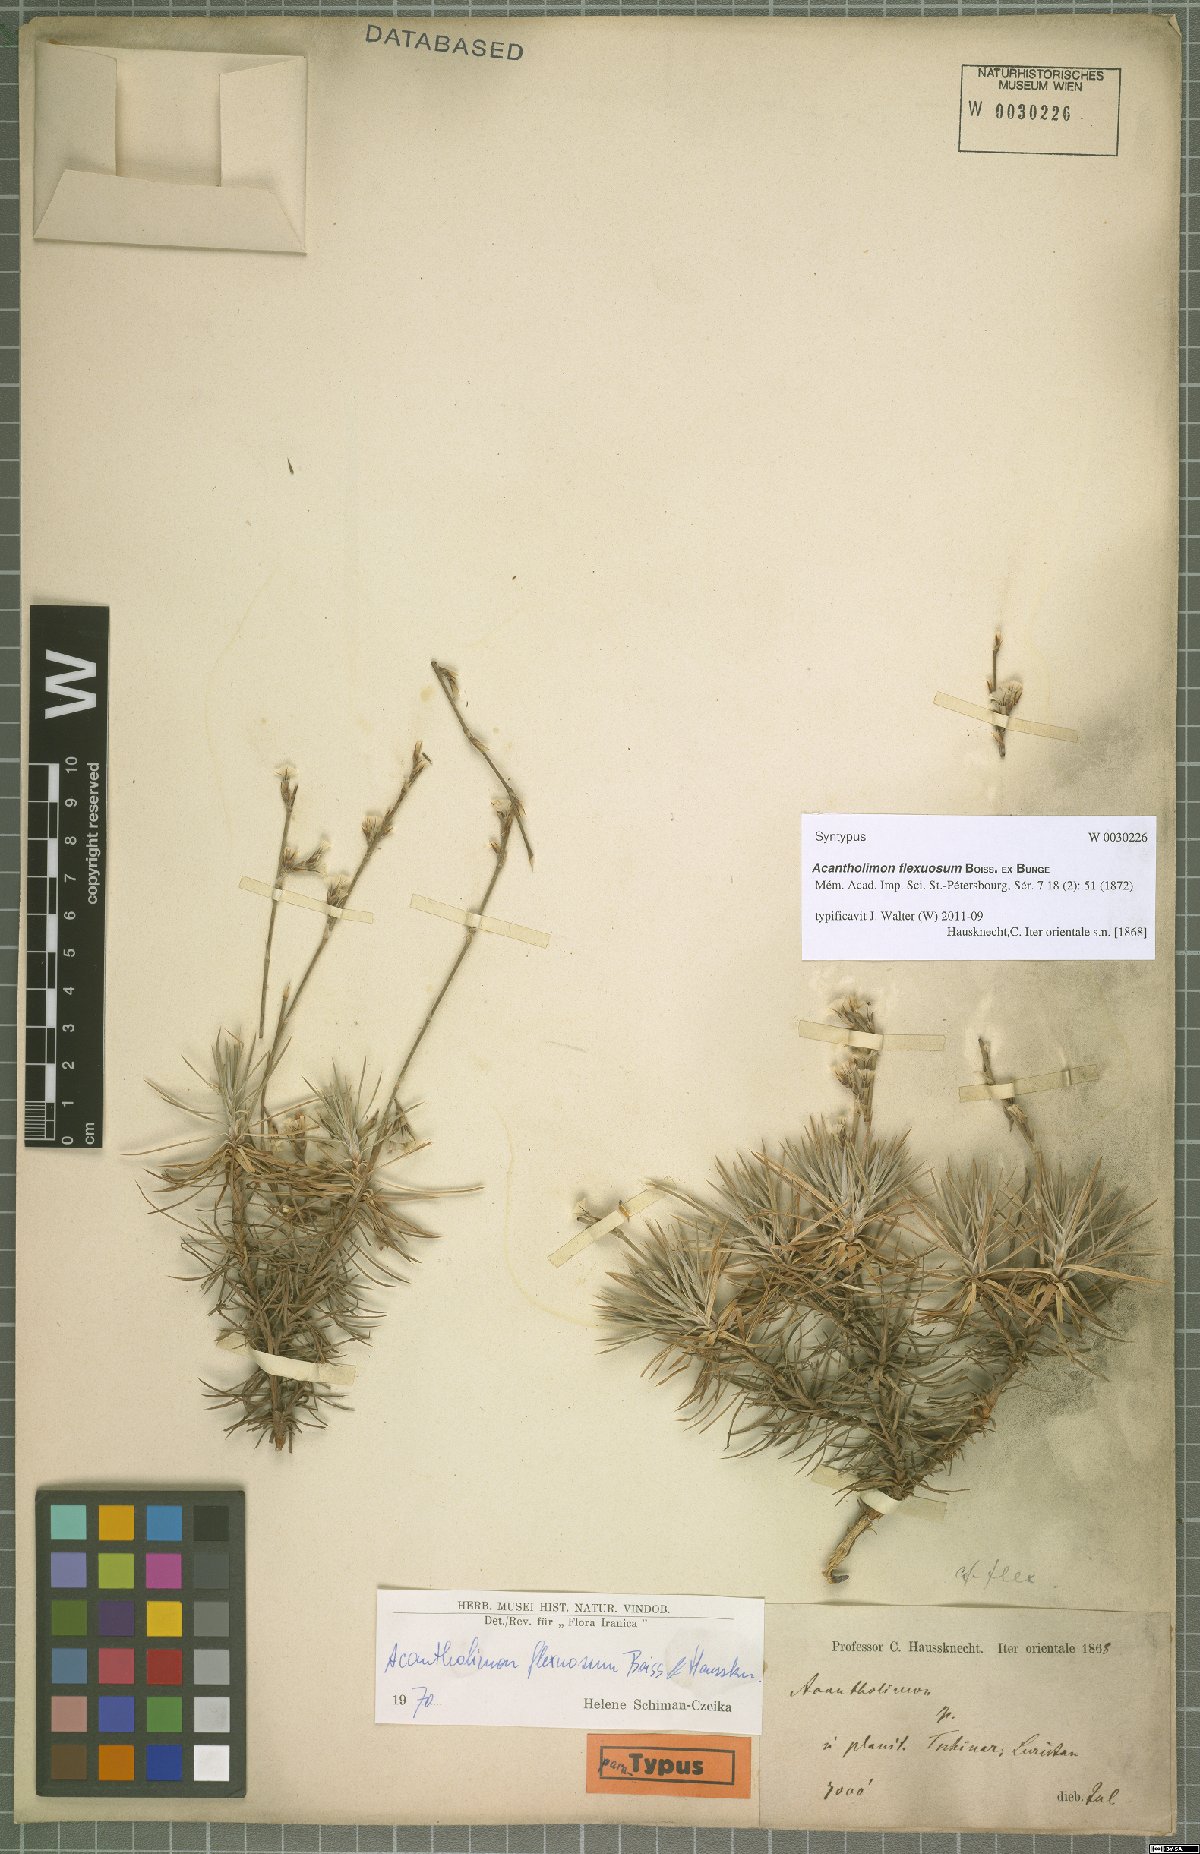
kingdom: Plantae
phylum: Tracheophyta
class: Magnoliopsida
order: Caryophyllales
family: Plumbaginaceae
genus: Acantholimon
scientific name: Acantholimon flexuosum
